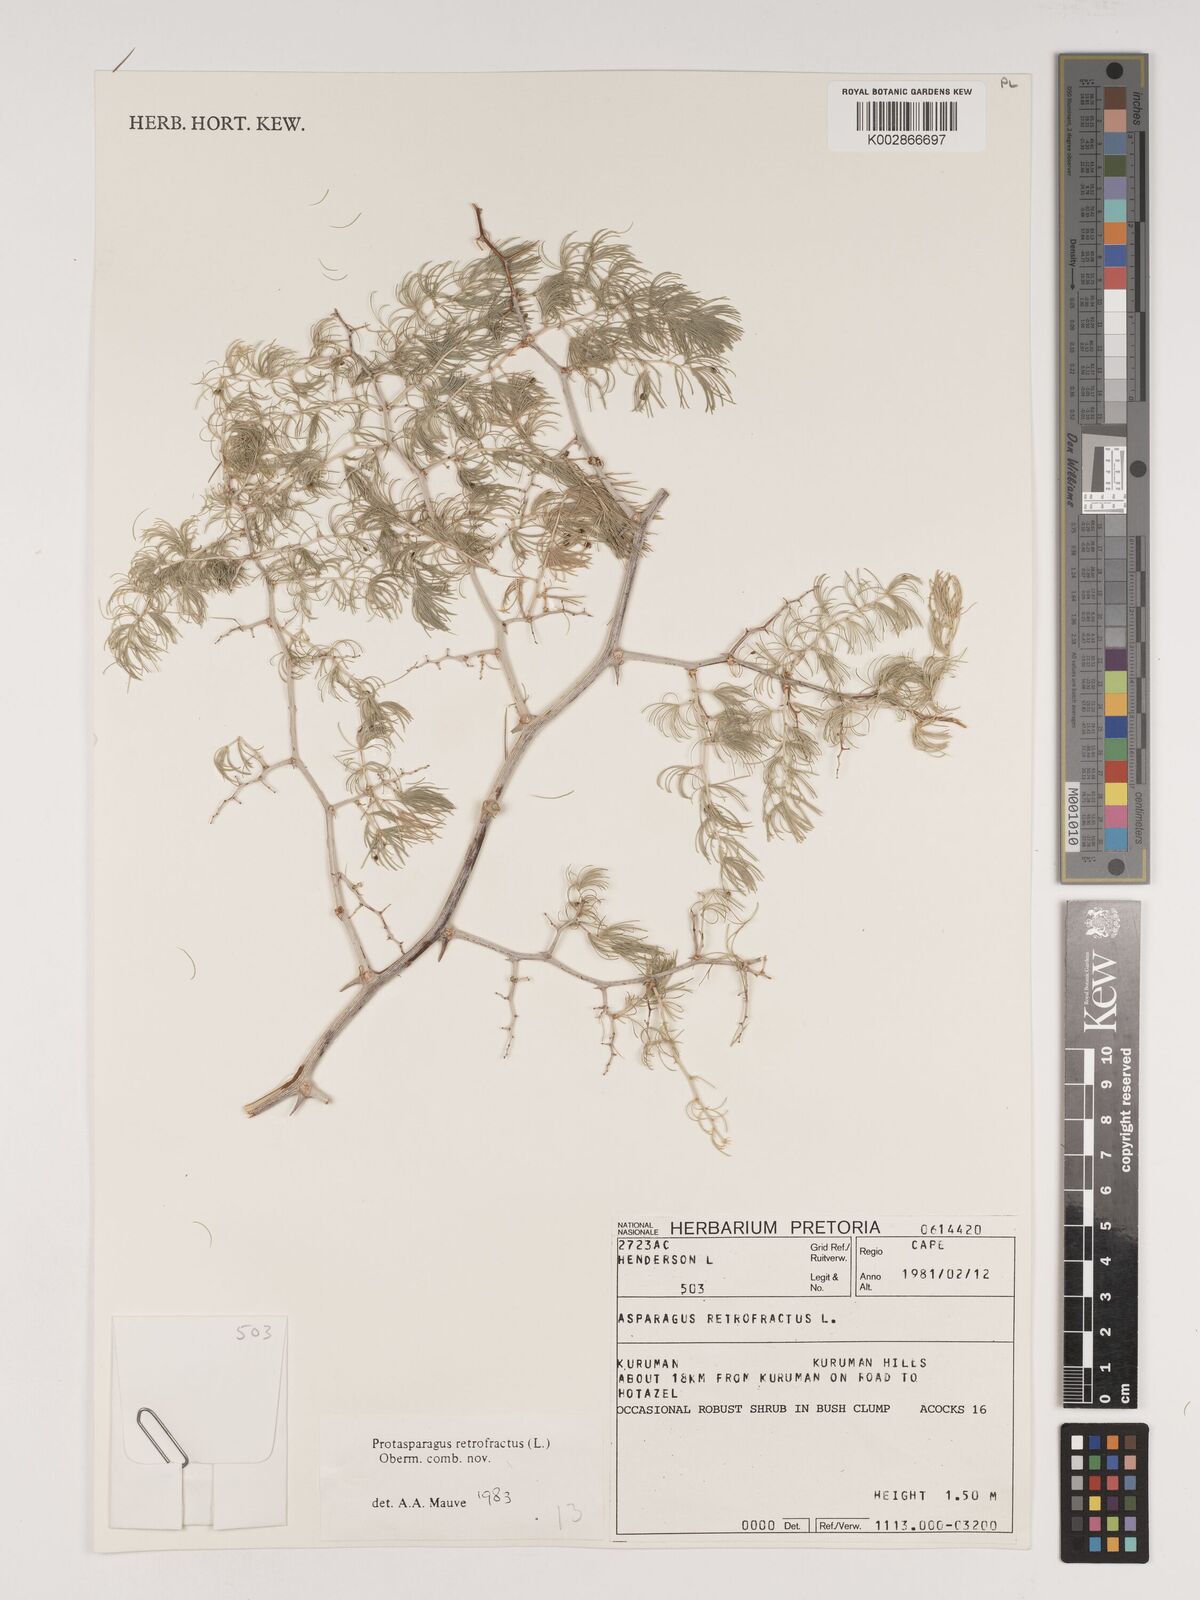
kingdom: Plantae
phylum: Tracheophyta
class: Liliopsida
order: Asparagales
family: Asparagaceae
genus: Asparagus
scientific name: Asparagus retrofractus
